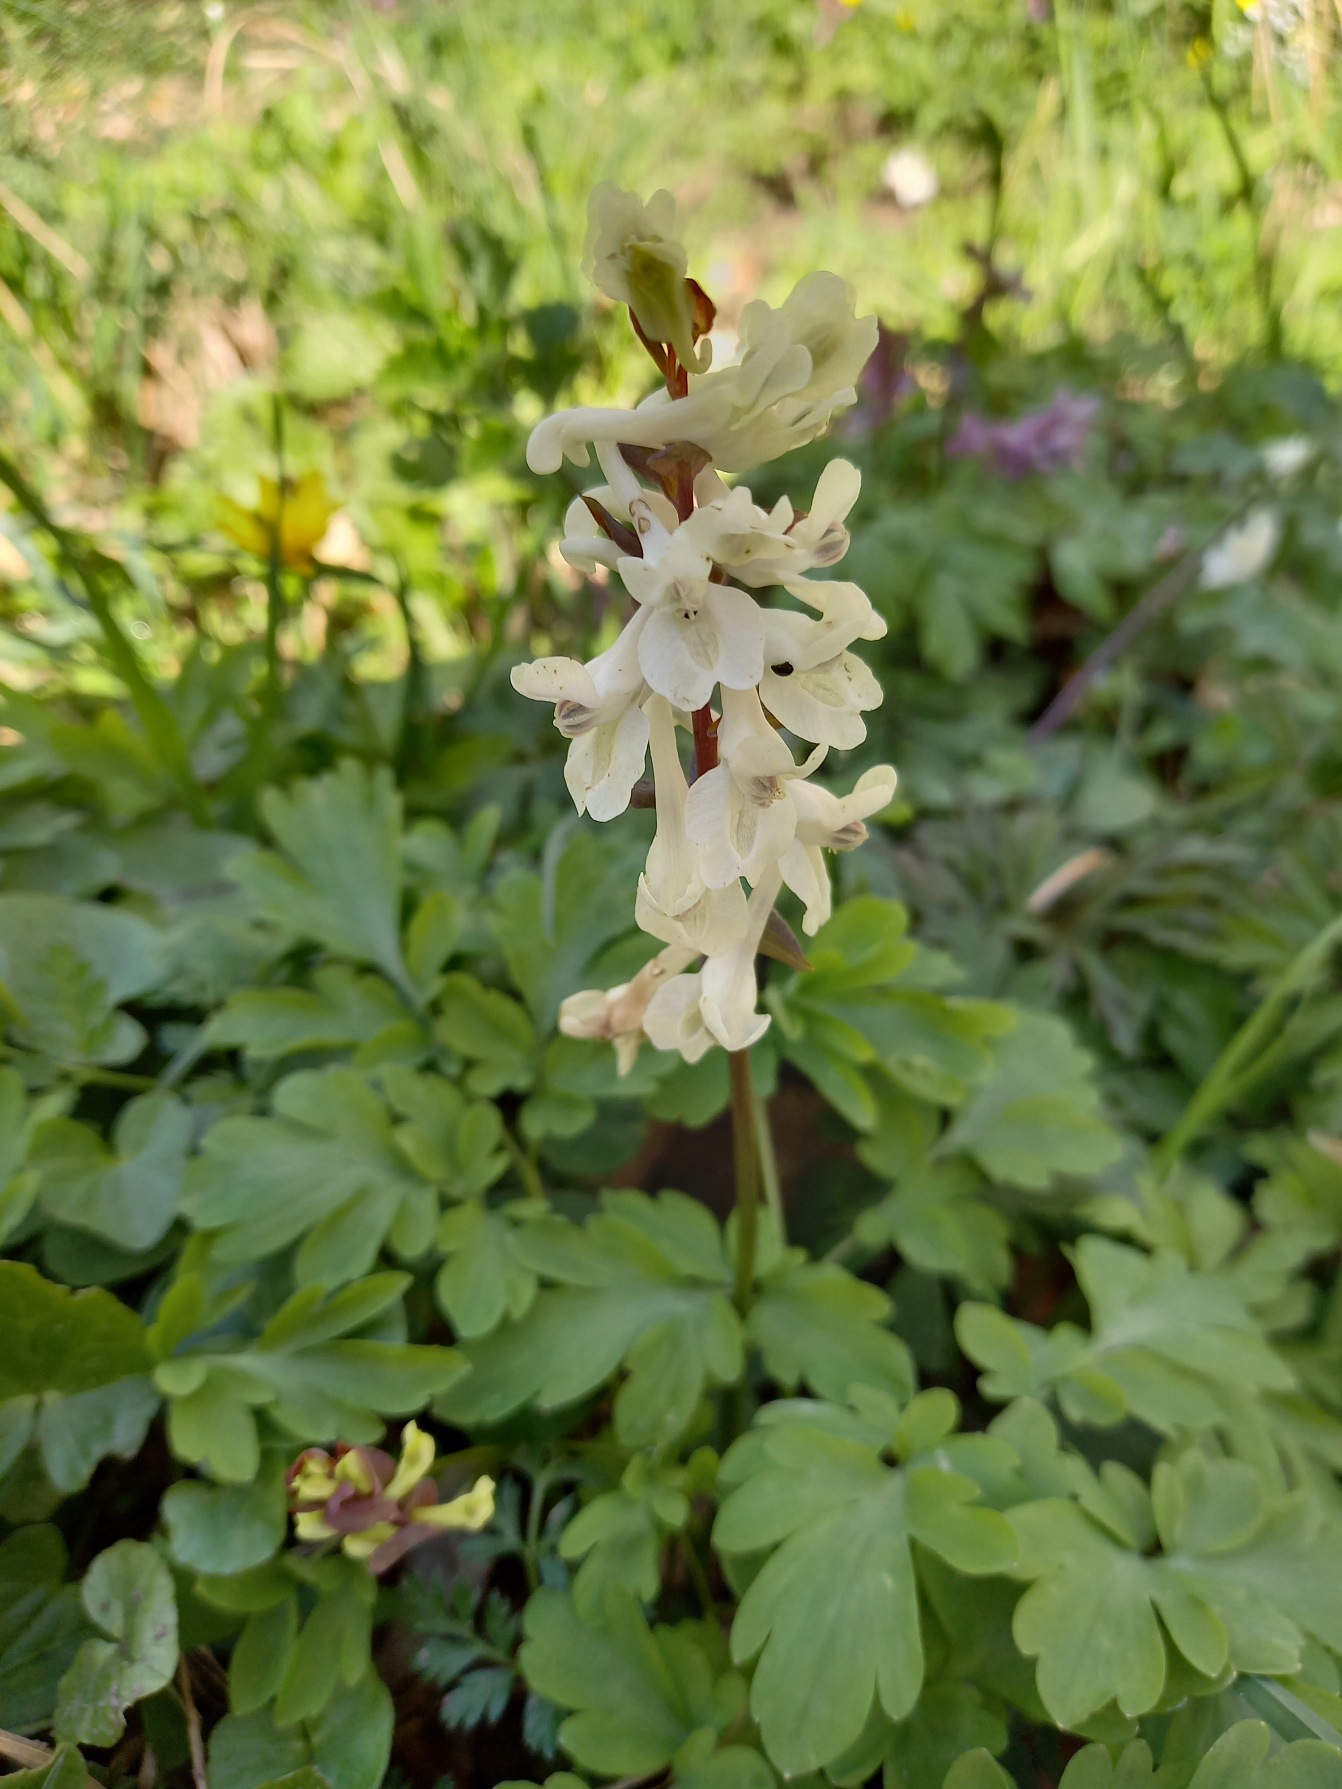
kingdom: Plantae
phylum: Tracheophyta
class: Magnoliopsida
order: Ranunculales
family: Papaveraceae
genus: Corydalis
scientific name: Corydalis cava
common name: Hulrodet lærkespore
